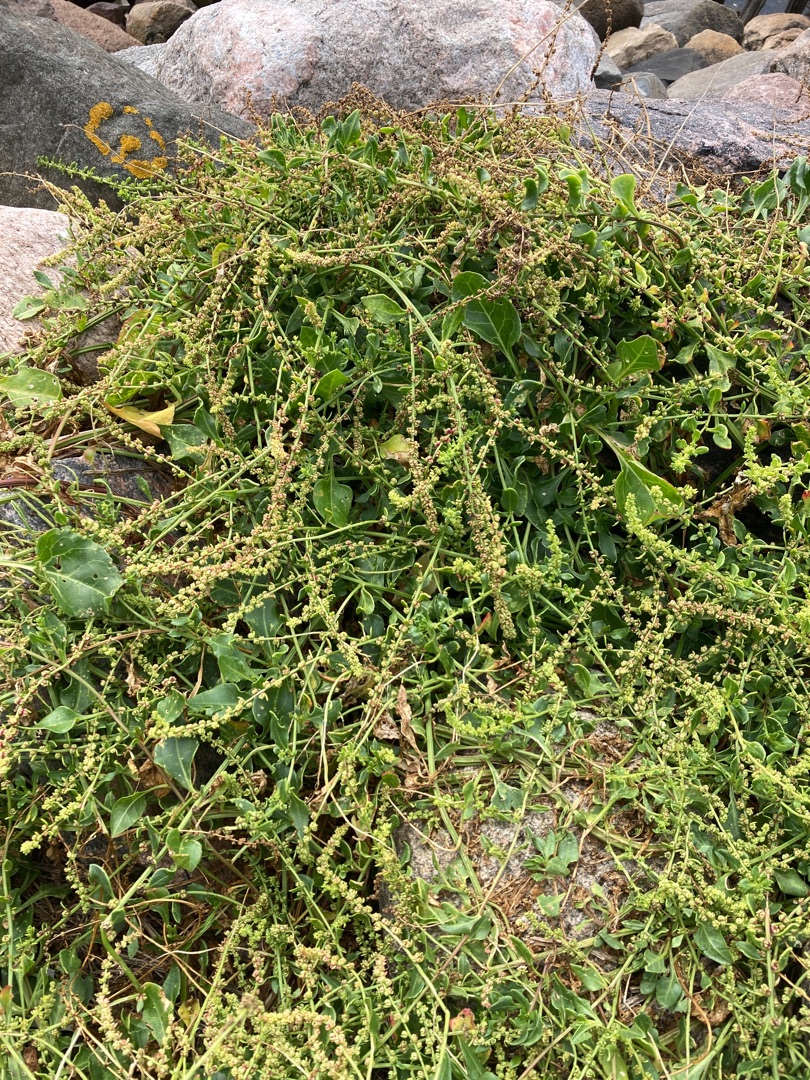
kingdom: Plantae
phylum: Tracheophyta
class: Magnoliopsida
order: Caryophyllales
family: Amaranthaceae
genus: Beta
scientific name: Beta maritima
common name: Strand-bede
